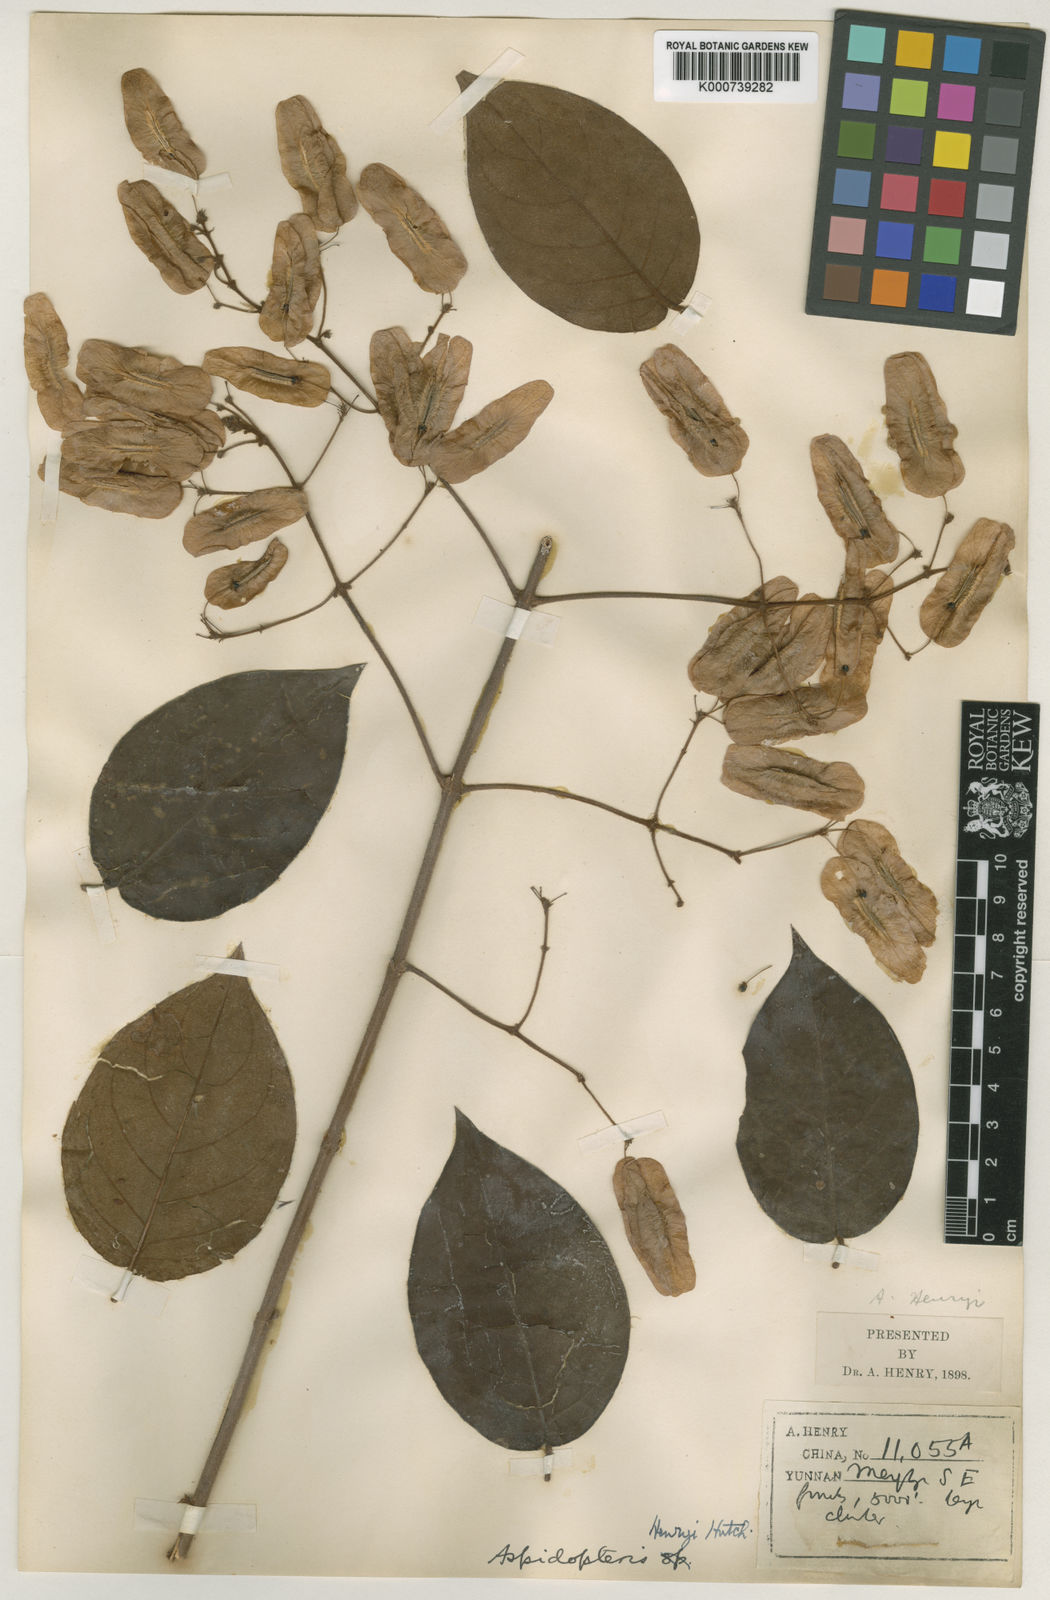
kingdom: Plantae
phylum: Tracheophyta
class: Magnoliopsida
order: Malpighiales
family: Malpighiaceae
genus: Aspidopterys
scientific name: Aspidopterys henryi
